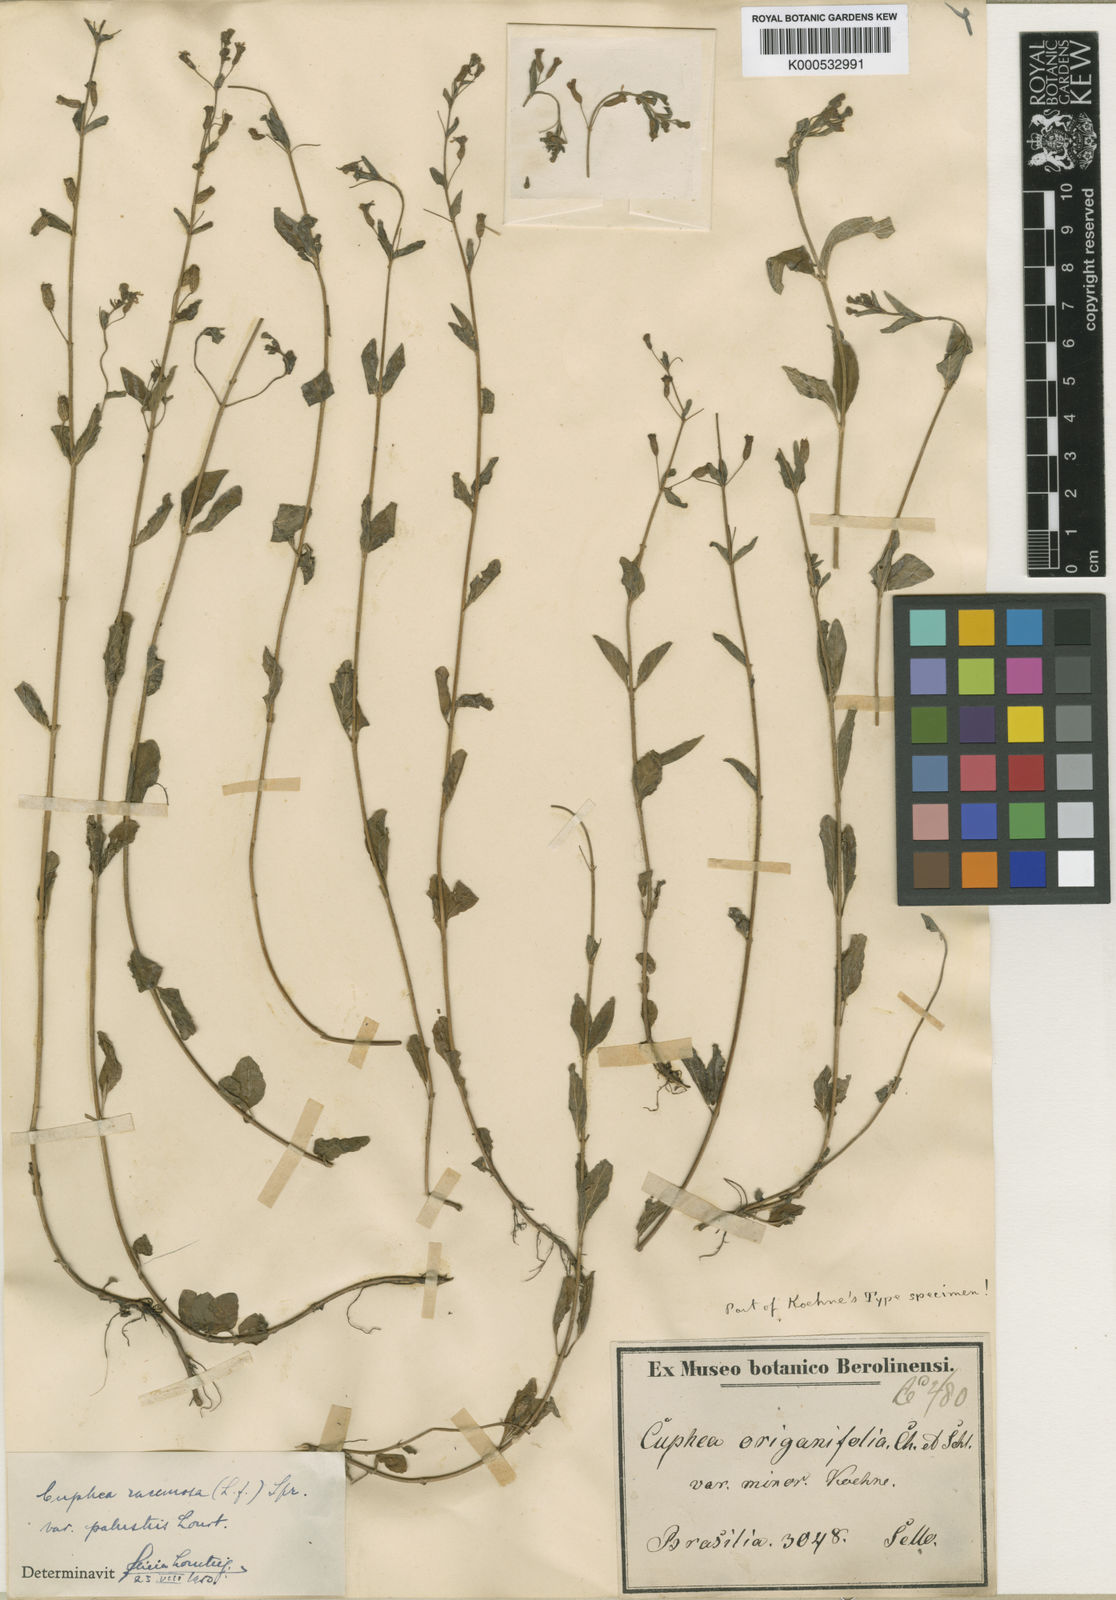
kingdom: Plantae
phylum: Tracheophyta
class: Magnoliopsida
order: Myrtales
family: Lythraceae
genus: Cuphea
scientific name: Cuphea racemosa
